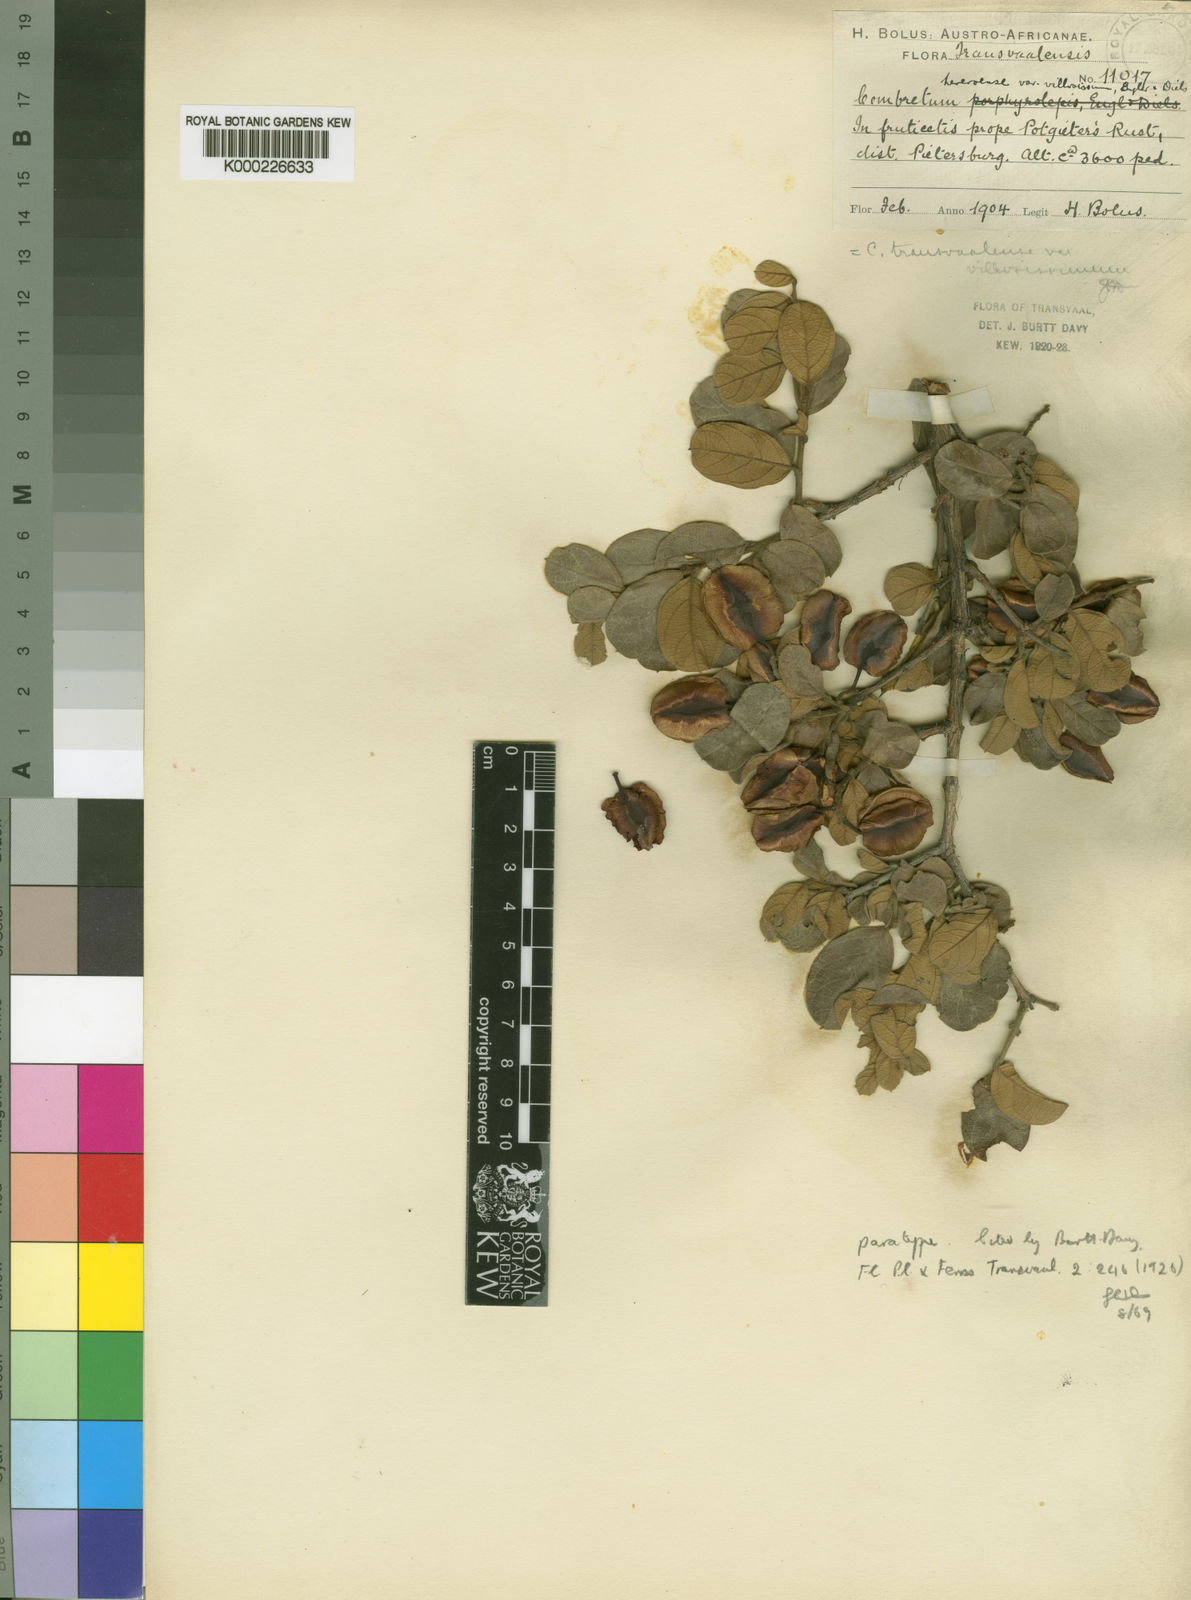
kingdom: Plantae
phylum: Tracheophyta
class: Magnoliopsida
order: Myrtales
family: Combretaceae
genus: Combretum
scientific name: Combretum hereroense
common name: Russet bushwillow
